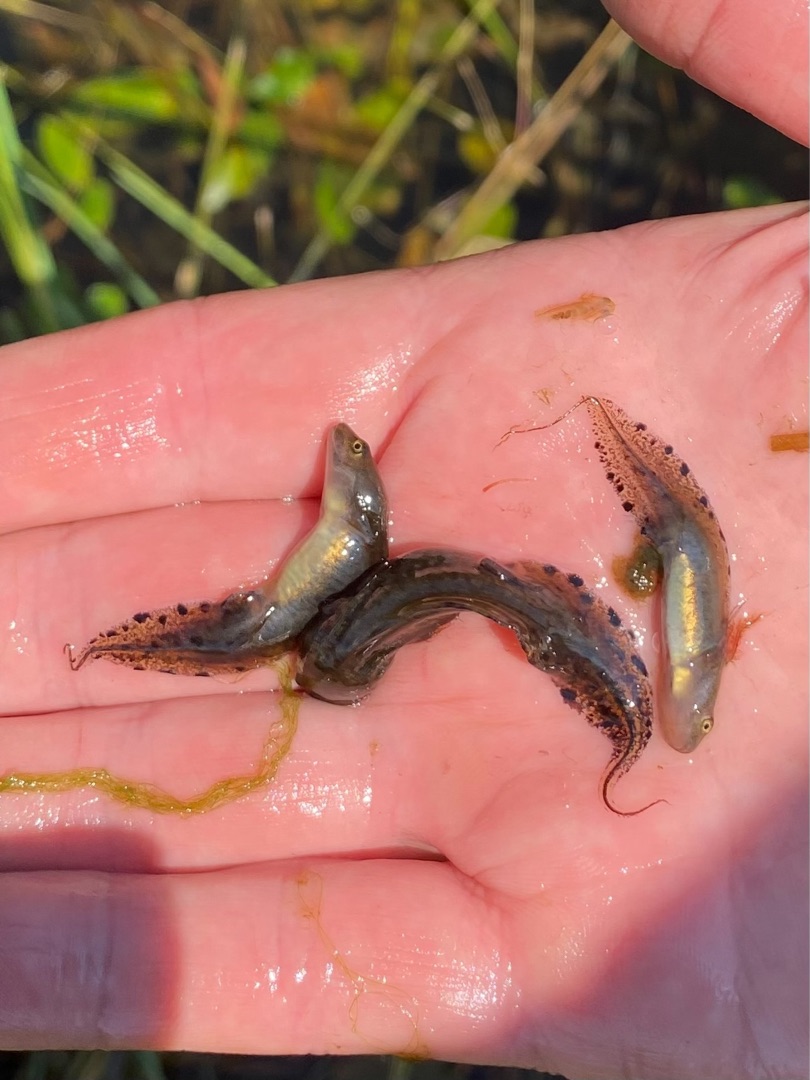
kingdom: Animalia
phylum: Chordata
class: Amphibia
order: Caudata
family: Salamandridae
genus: Triturus
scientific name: Triturus cristatus
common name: Stor vandsalamander
